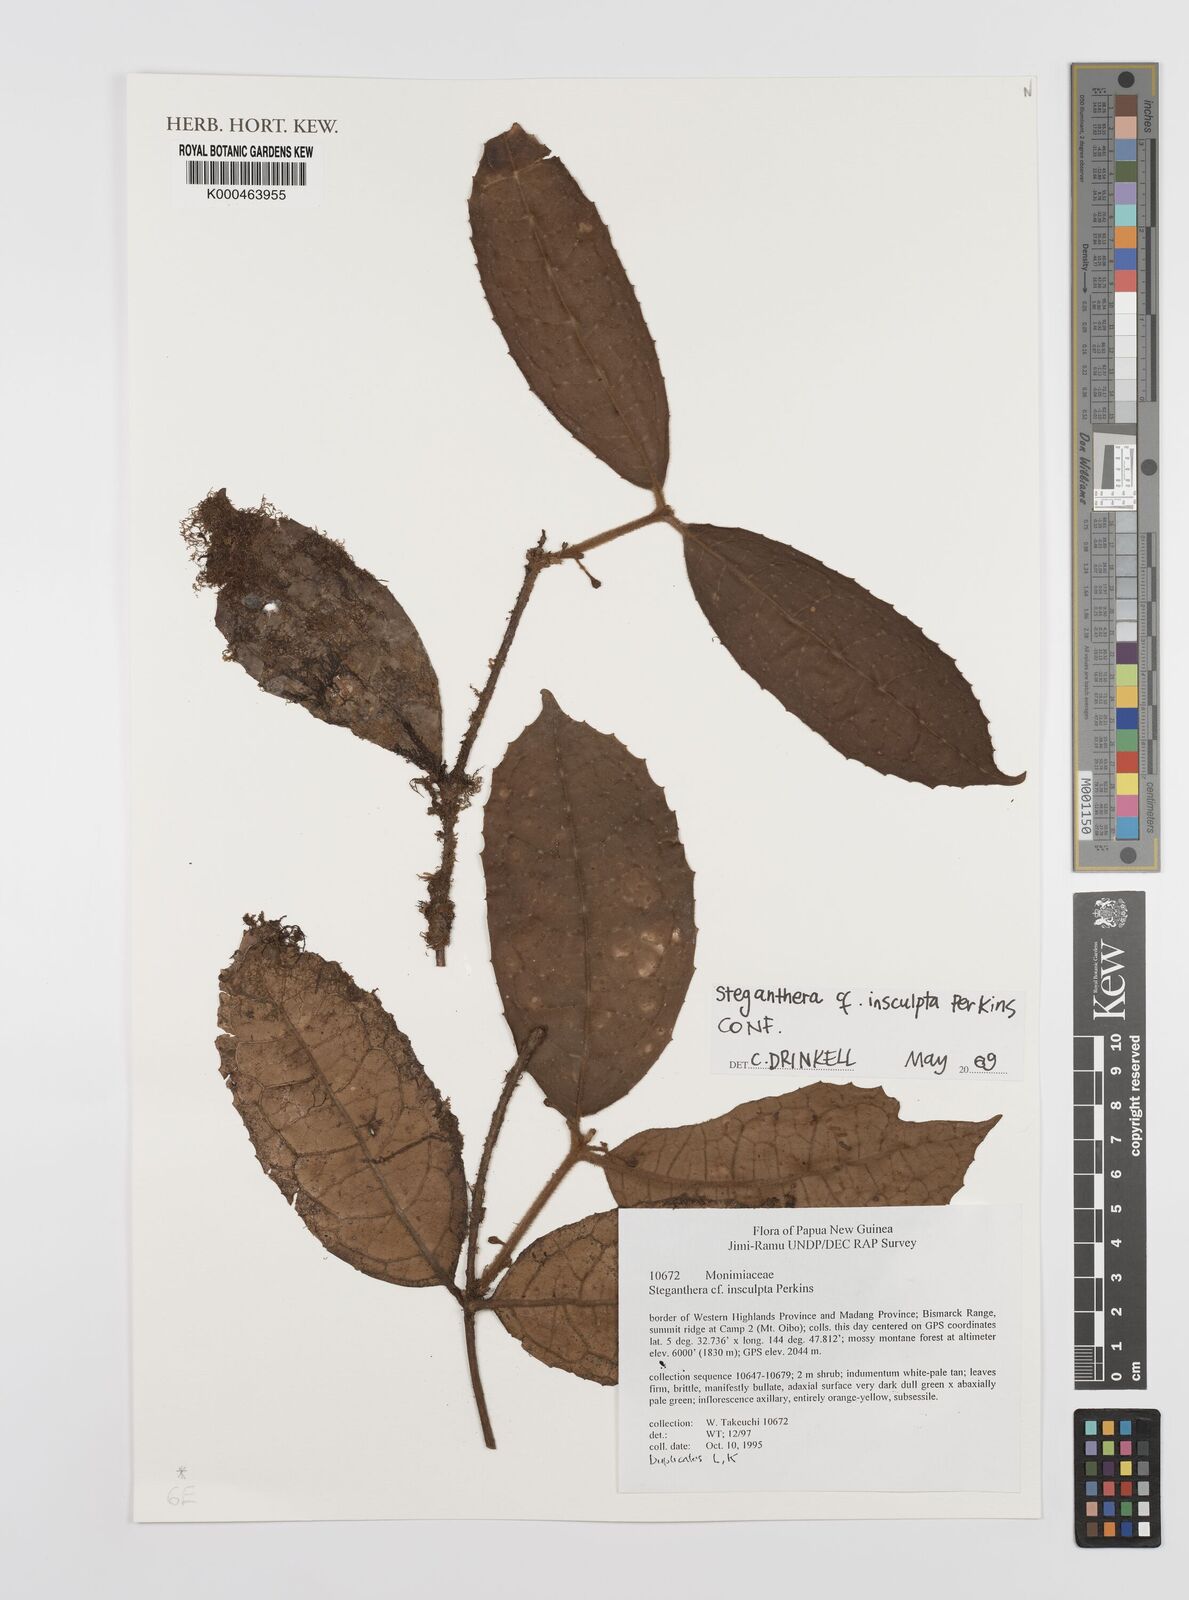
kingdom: Plantae
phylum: Tracheophyta
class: Magnoliopsida
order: Laurales
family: Monimiaceae
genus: Steganthera
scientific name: Steganthera insculpta
